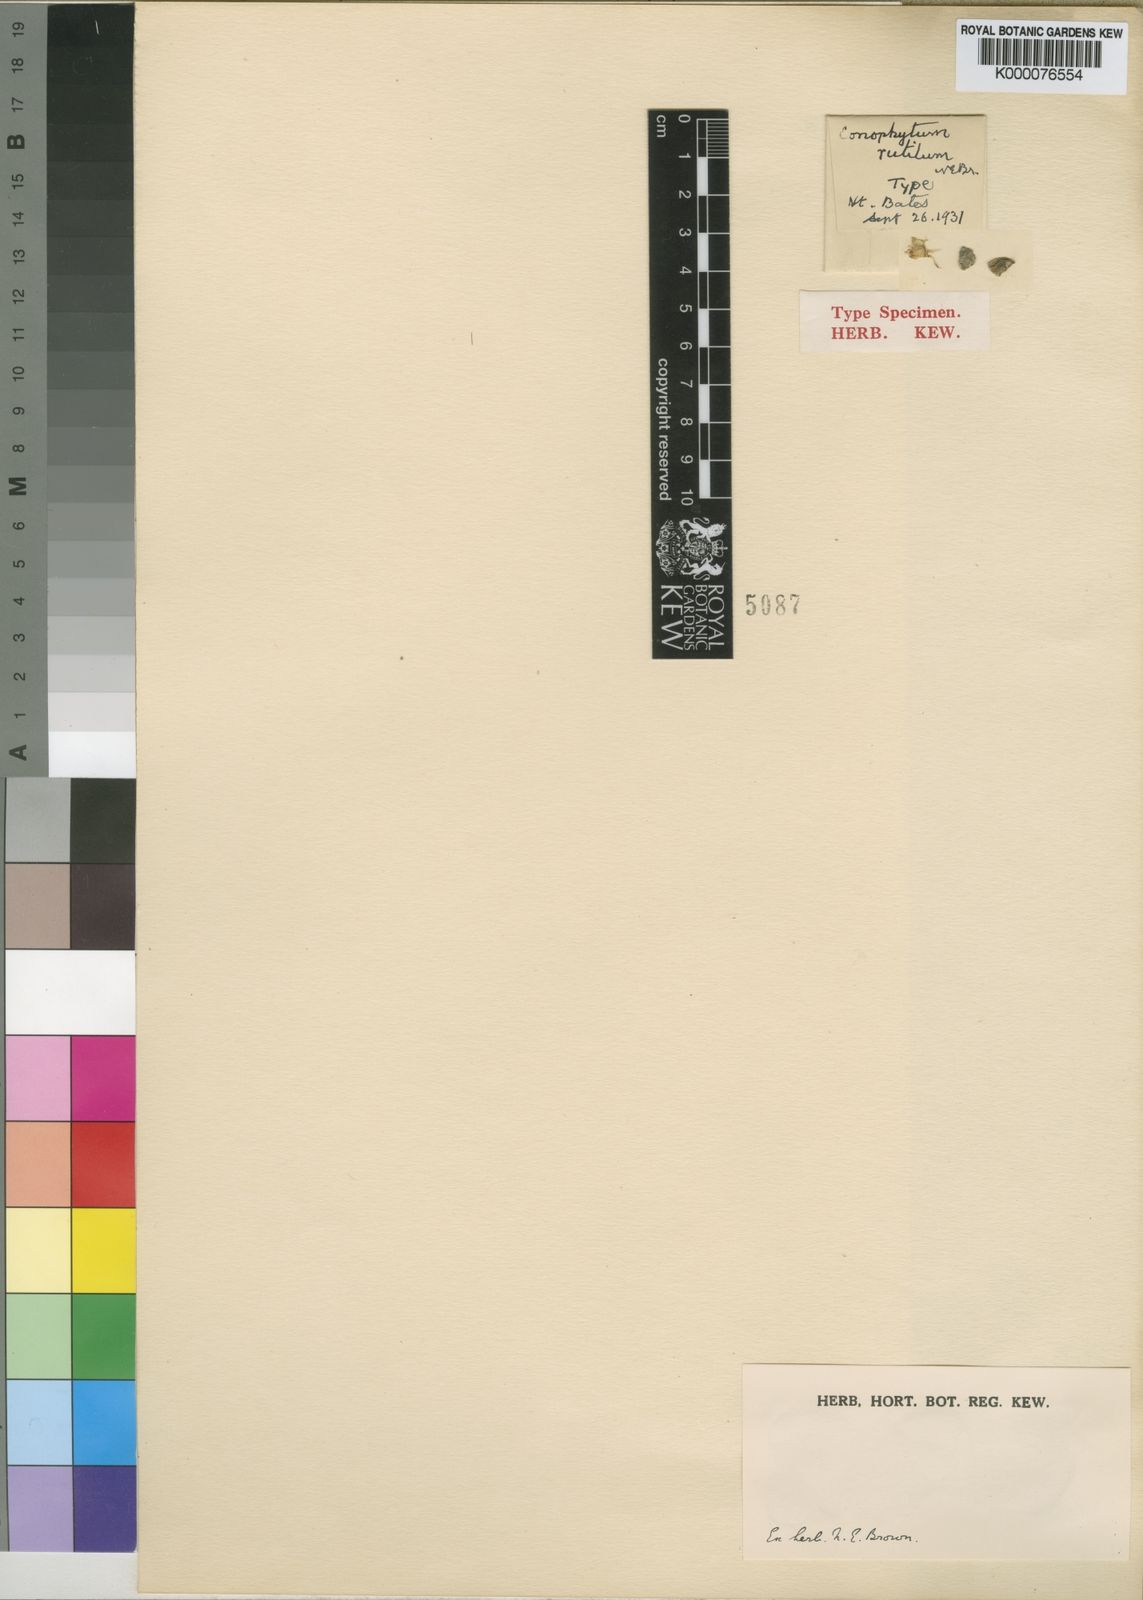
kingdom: Plantae
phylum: Tracheophyta
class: Magnoliopsida
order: Caryophyllales
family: Aizoaceae
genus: Conophytum
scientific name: Conophytum
